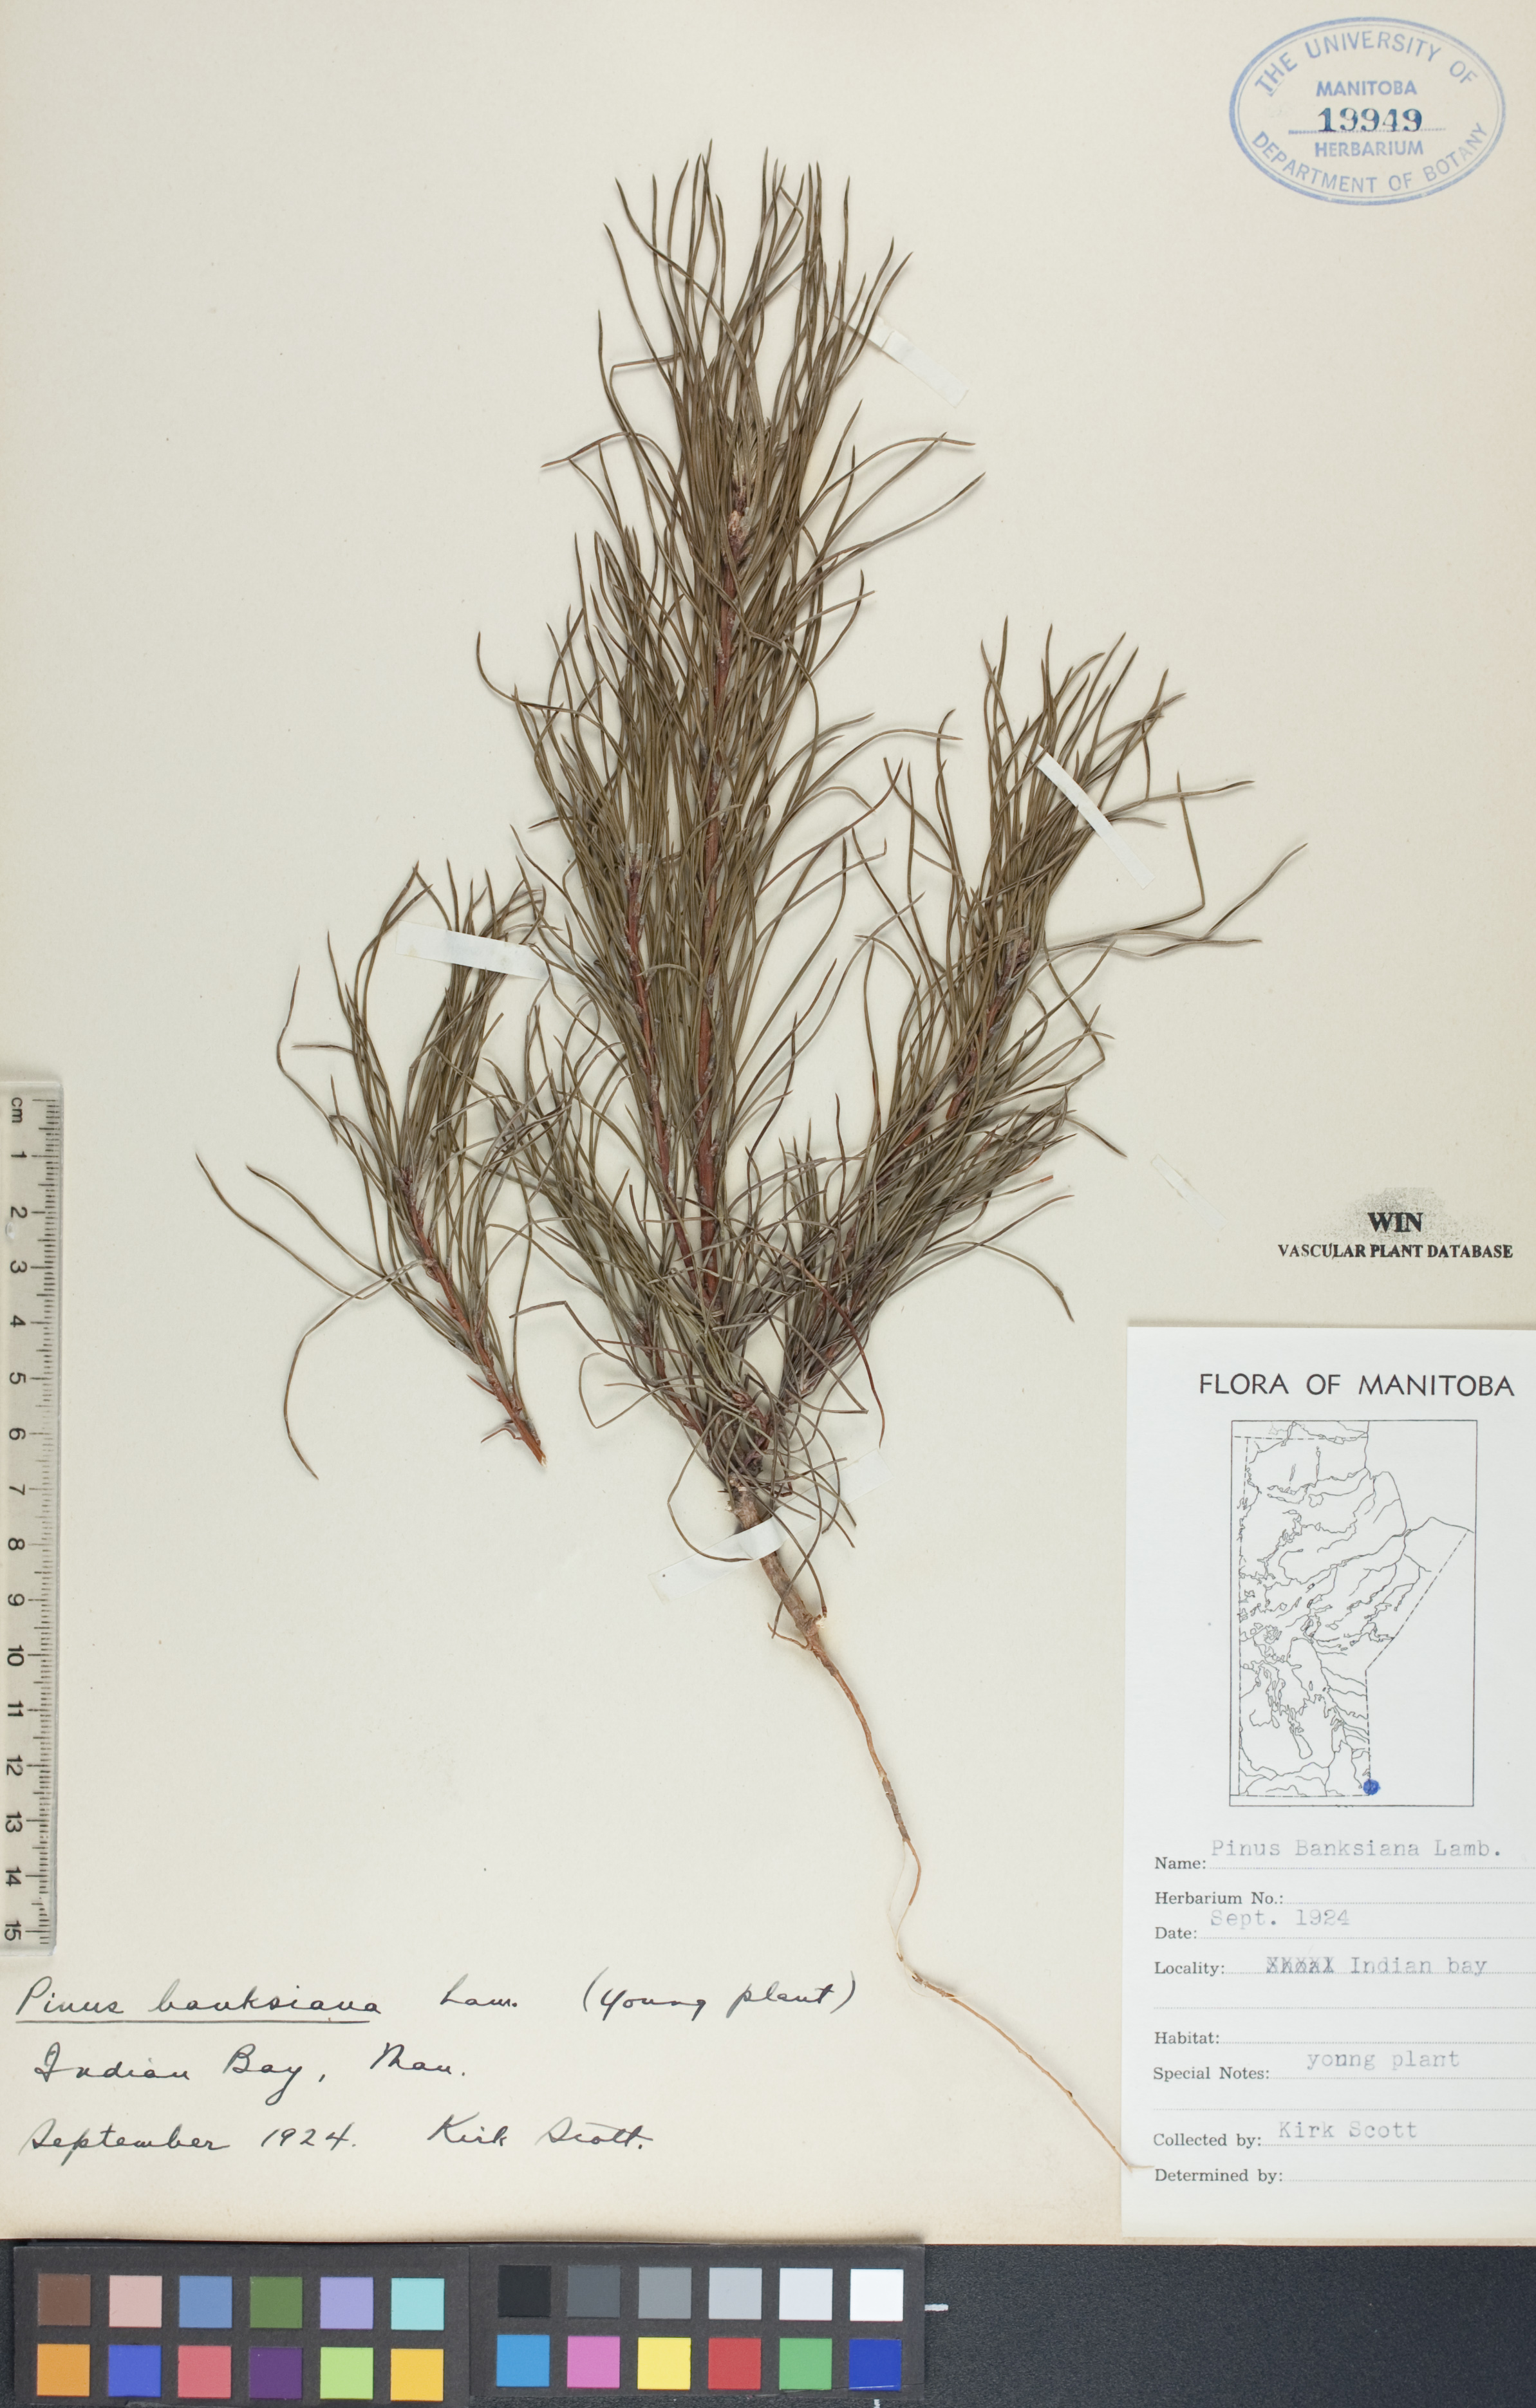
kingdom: Plantae
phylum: Tracheophyta
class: Pinopsida
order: Pinales
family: Pinaceae
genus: Pinus
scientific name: Pinus banksiana
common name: Jack pine
